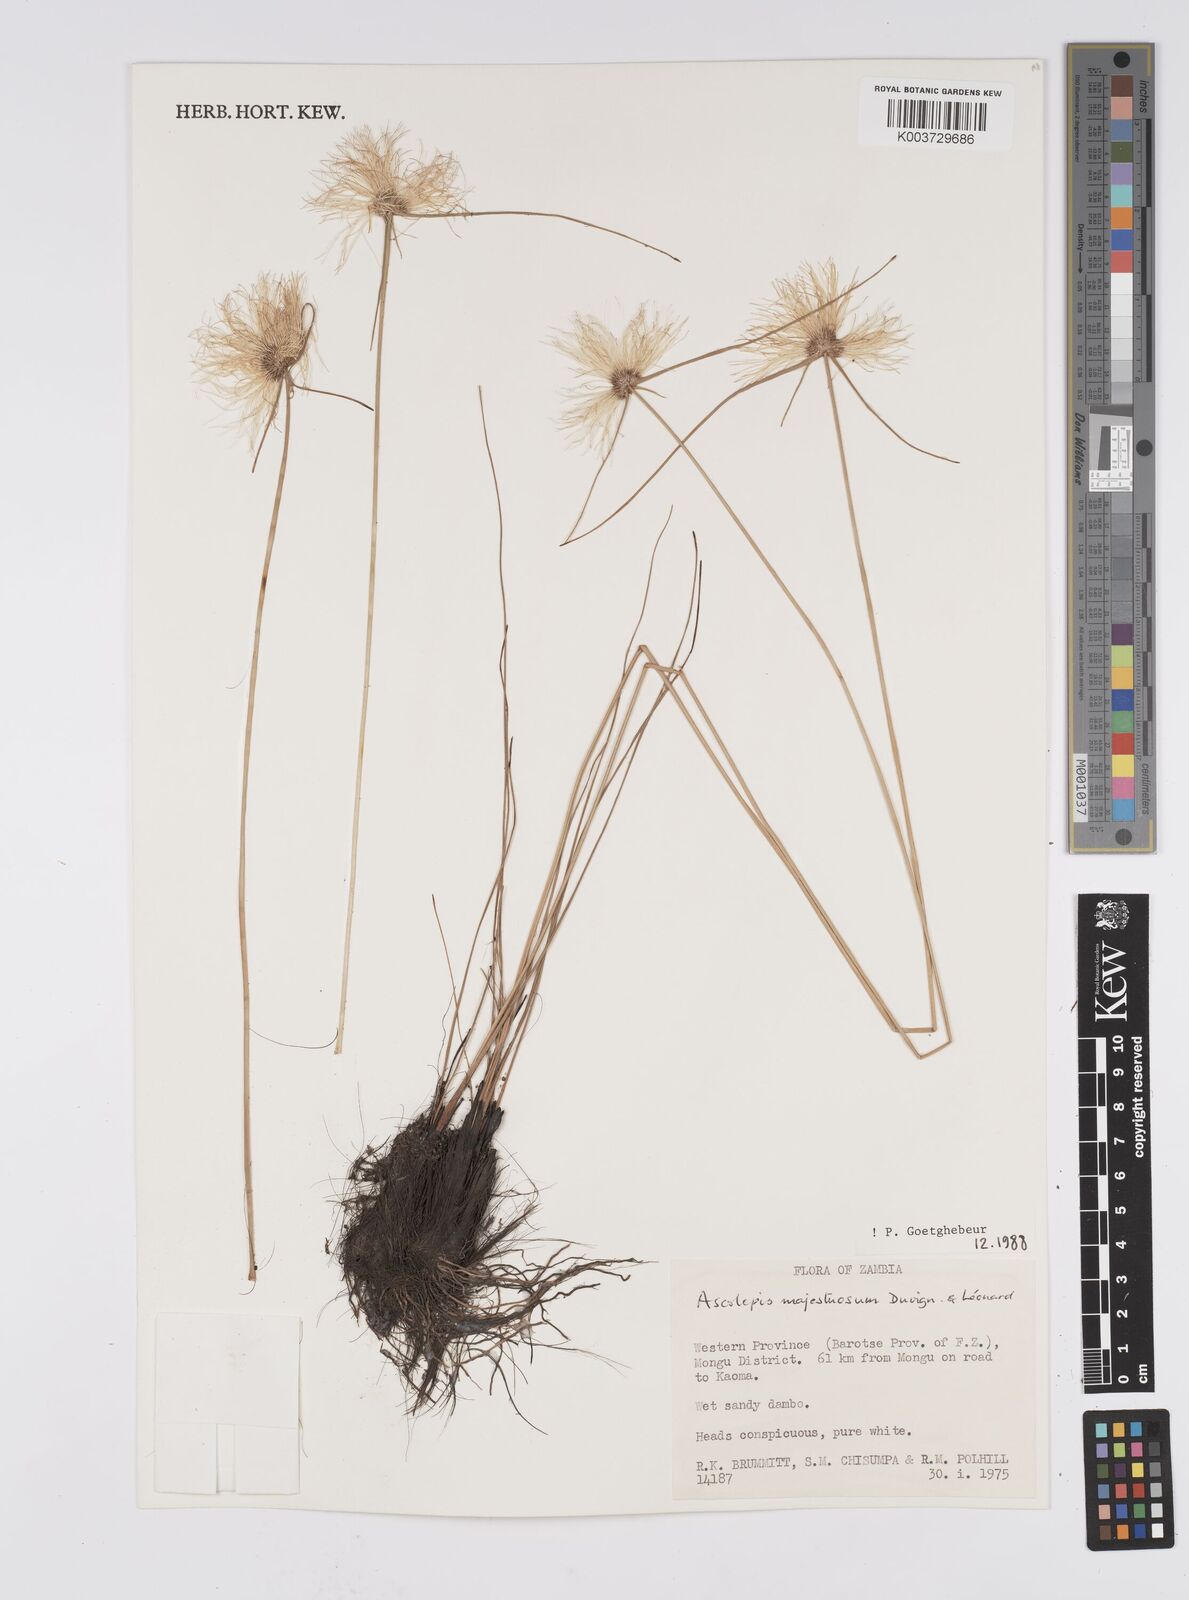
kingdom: Plantae
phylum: Tracheophyta
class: Liliopsida
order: Poales
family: Cyperaceae
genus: Cyperus
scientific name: Cyperus majestuosus
